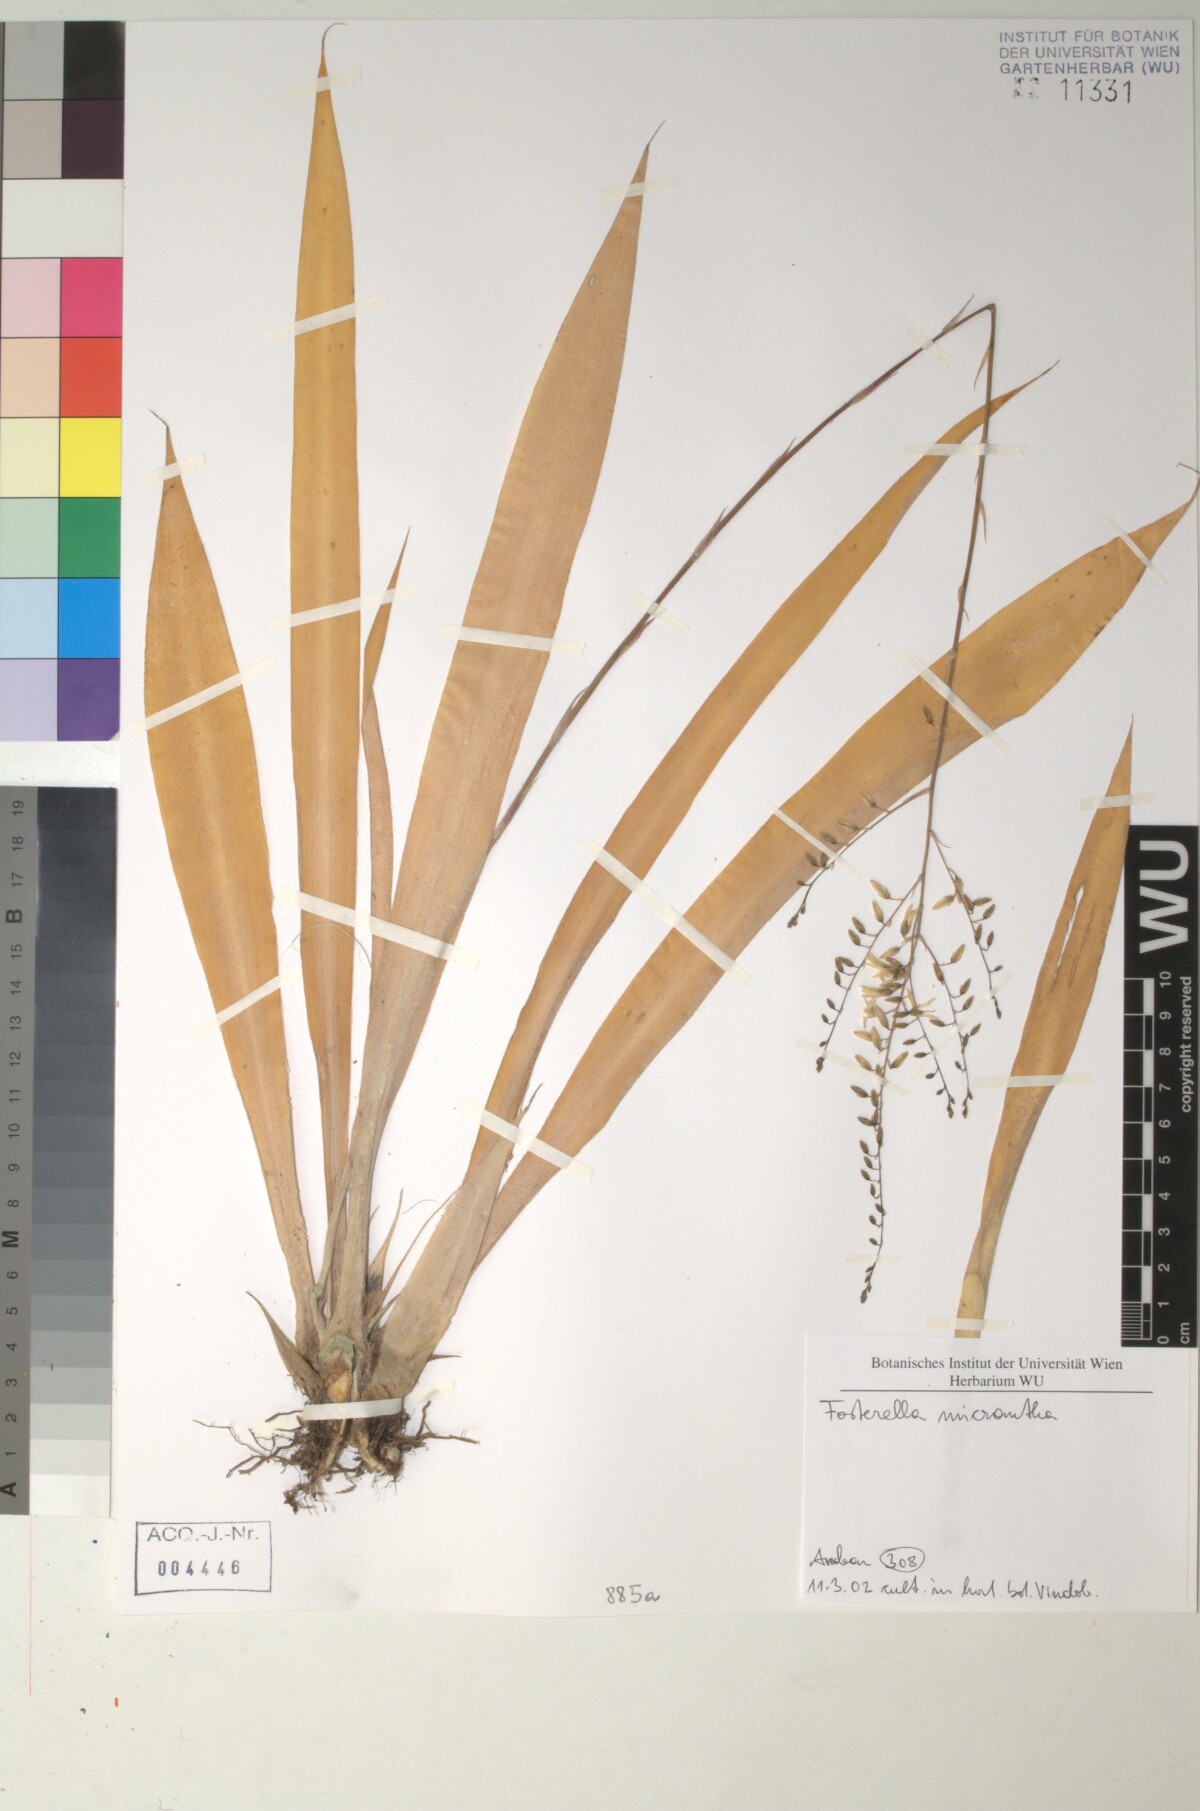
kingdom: Plantae
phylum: Tracheophyta
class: Liliopsida
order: Poales
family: Bromeliaceae
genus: Fosterella
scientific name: Fosterella penduliflora
